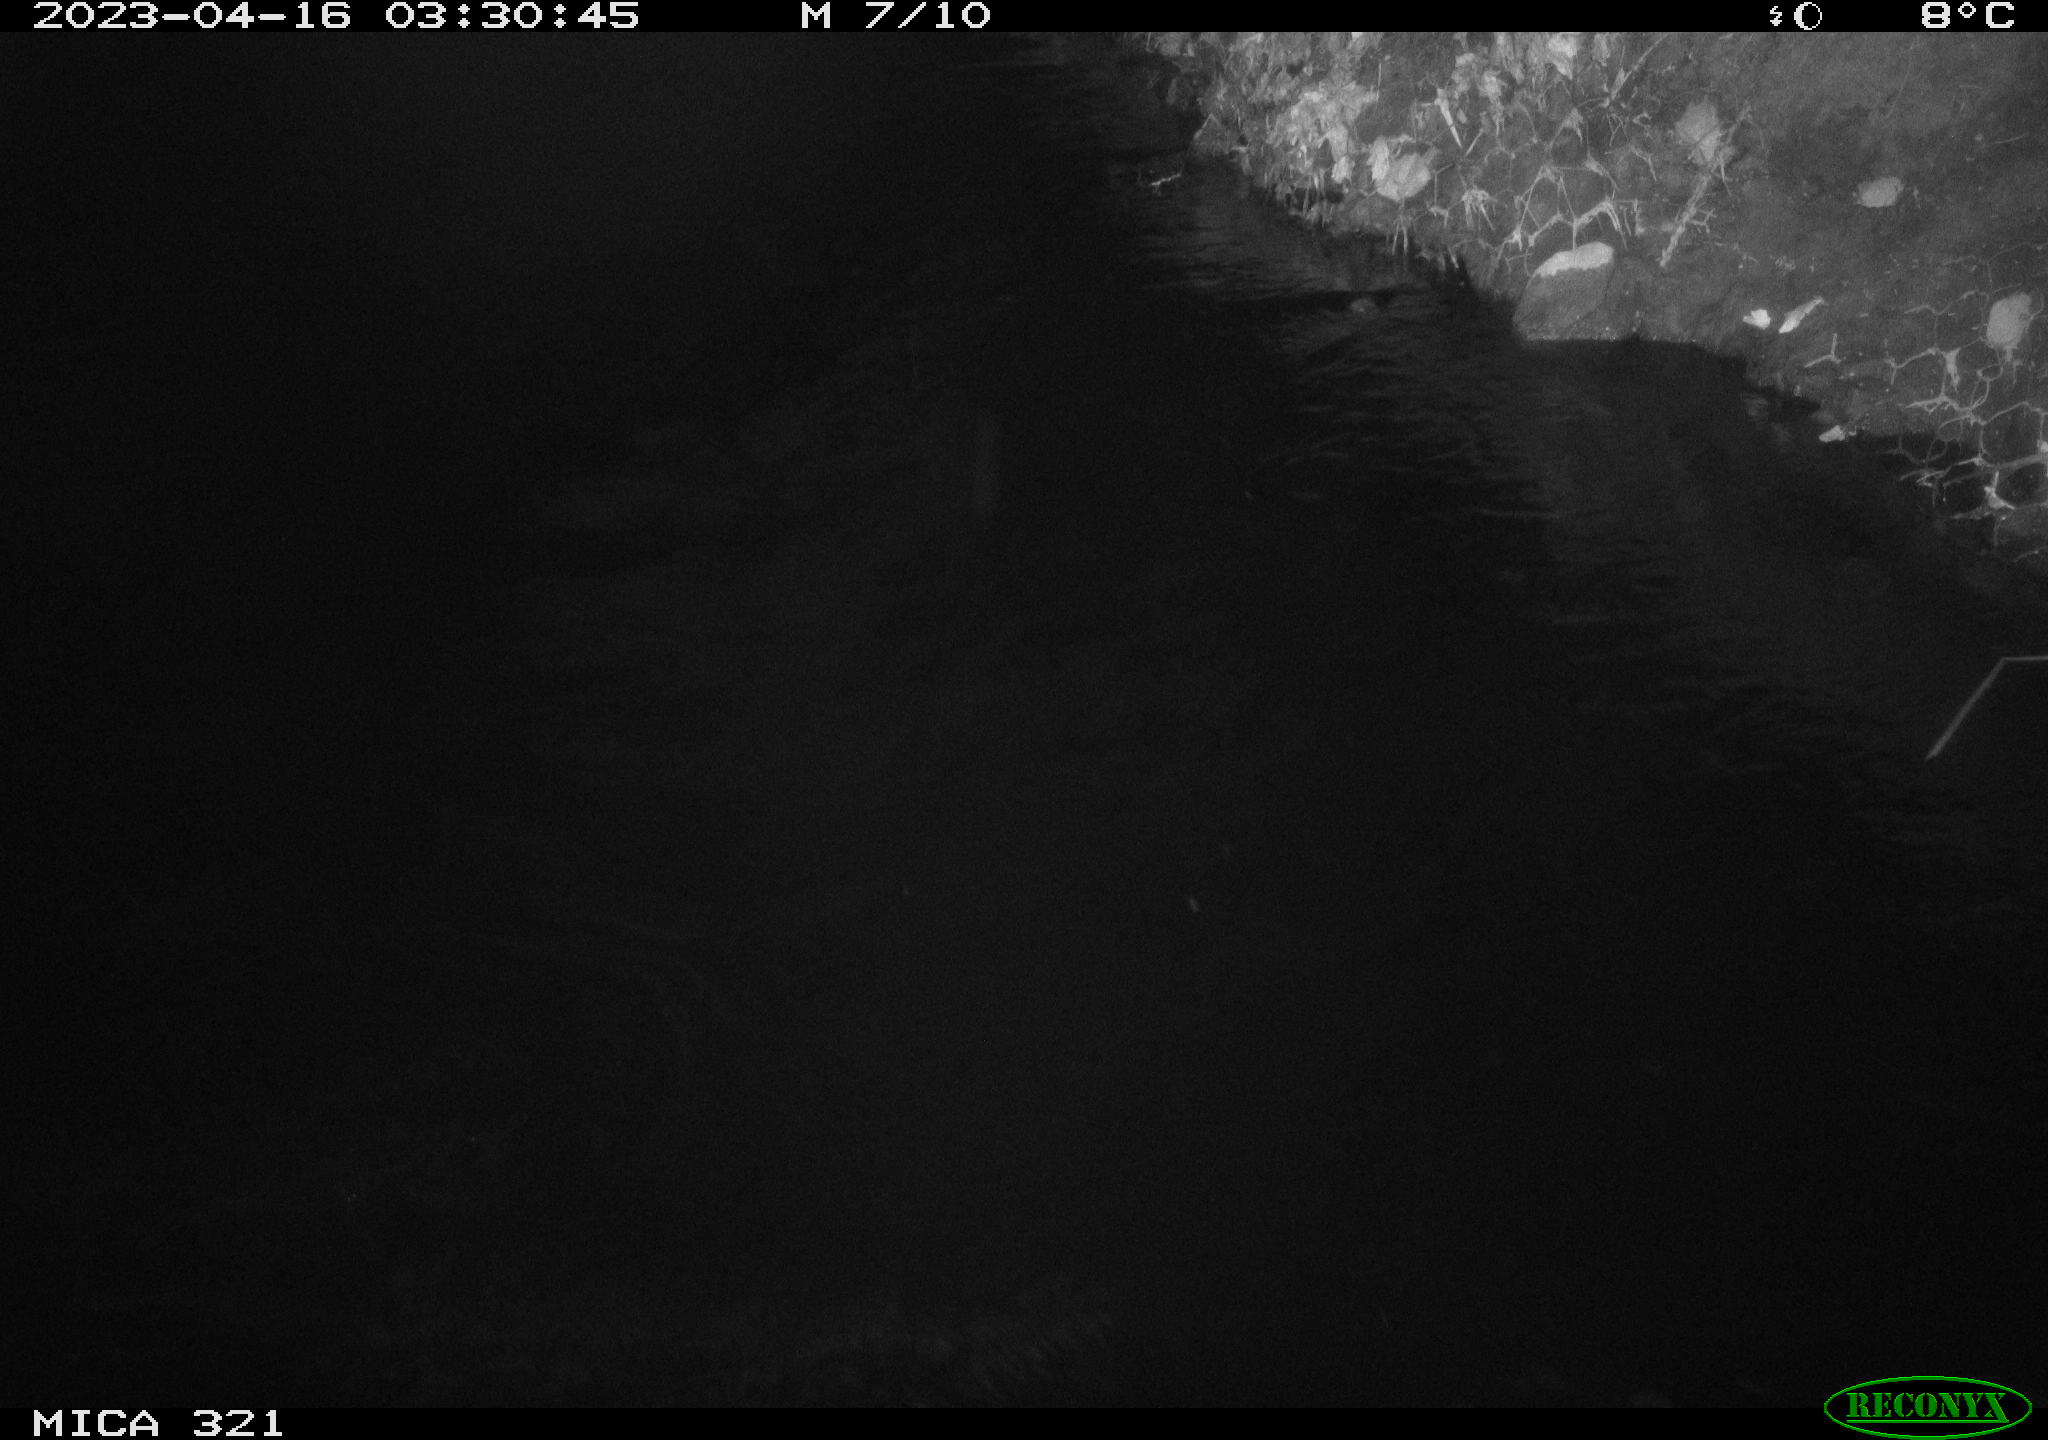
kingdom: Animalia
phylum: Chordata
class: Aves
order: Anseriformes
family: Anatidae
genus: Anas
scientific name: Anas
